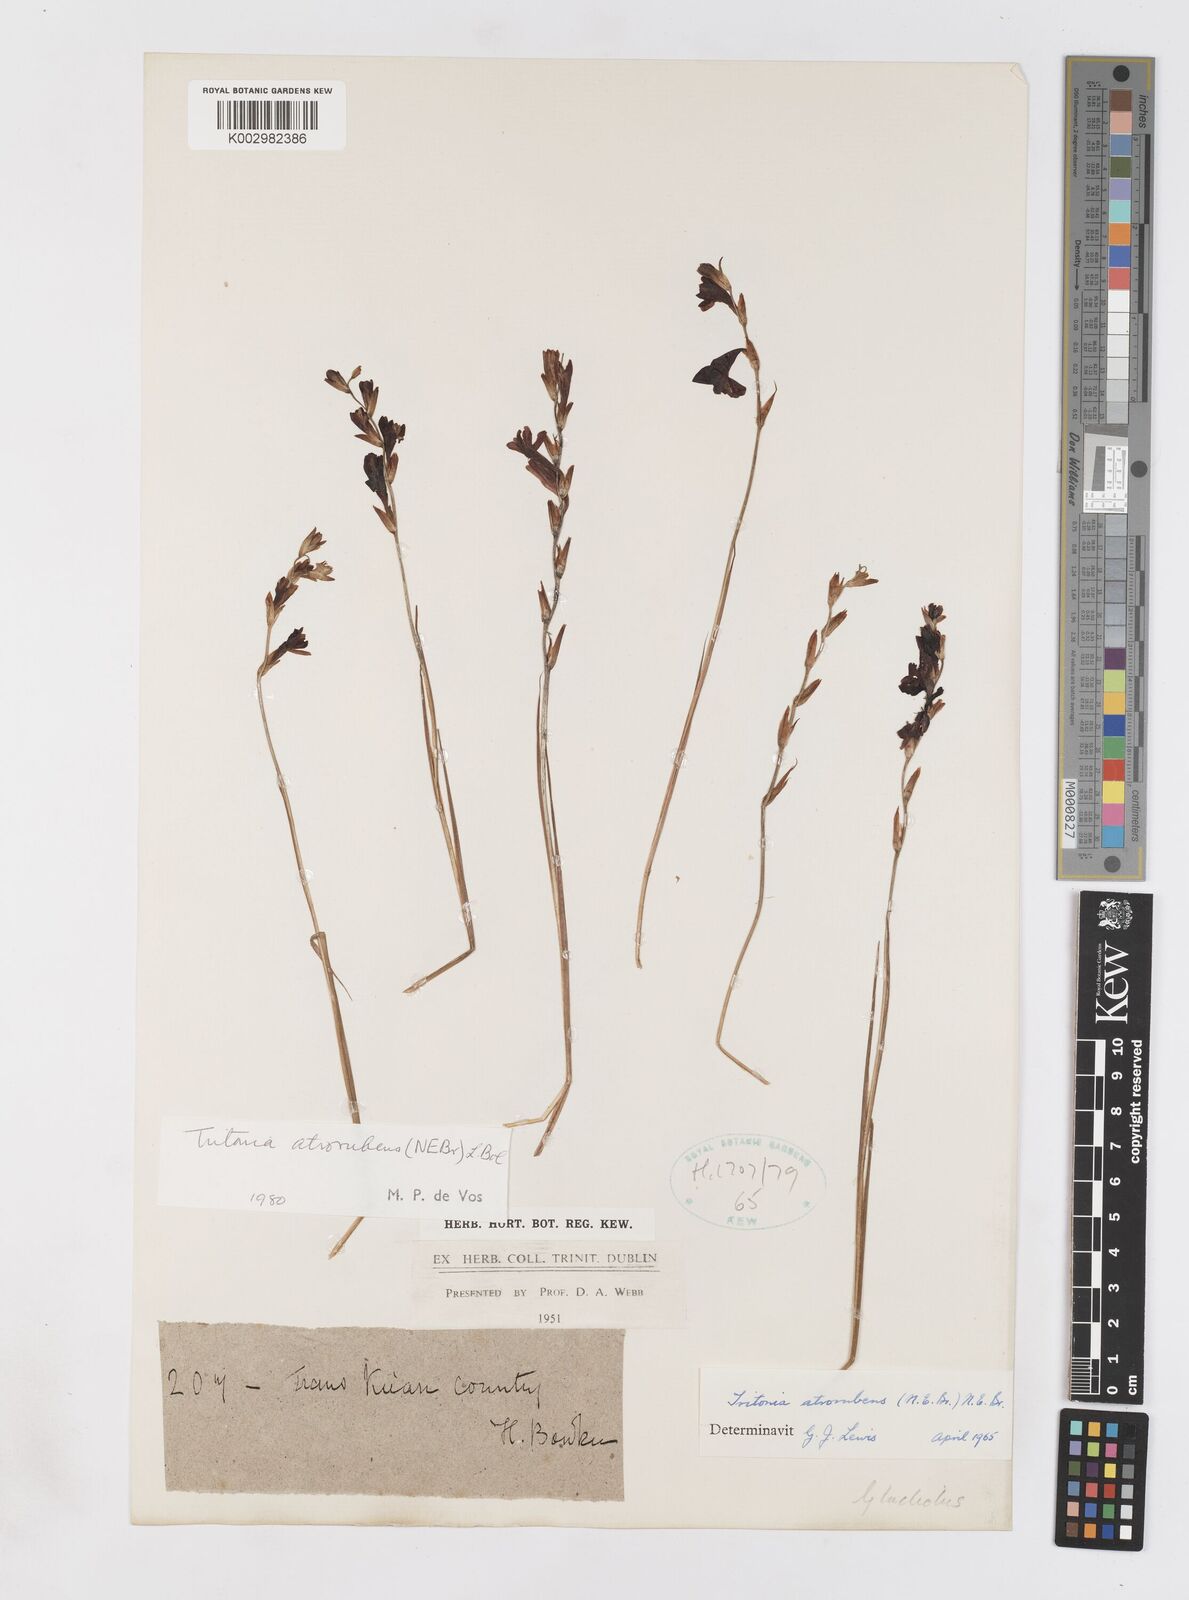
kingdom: Plantae
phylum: Tracheophyta
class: Liliopsida
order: Asparagales
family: Iridaceae
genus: Tritonia
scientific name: Tritonia atrorubens
